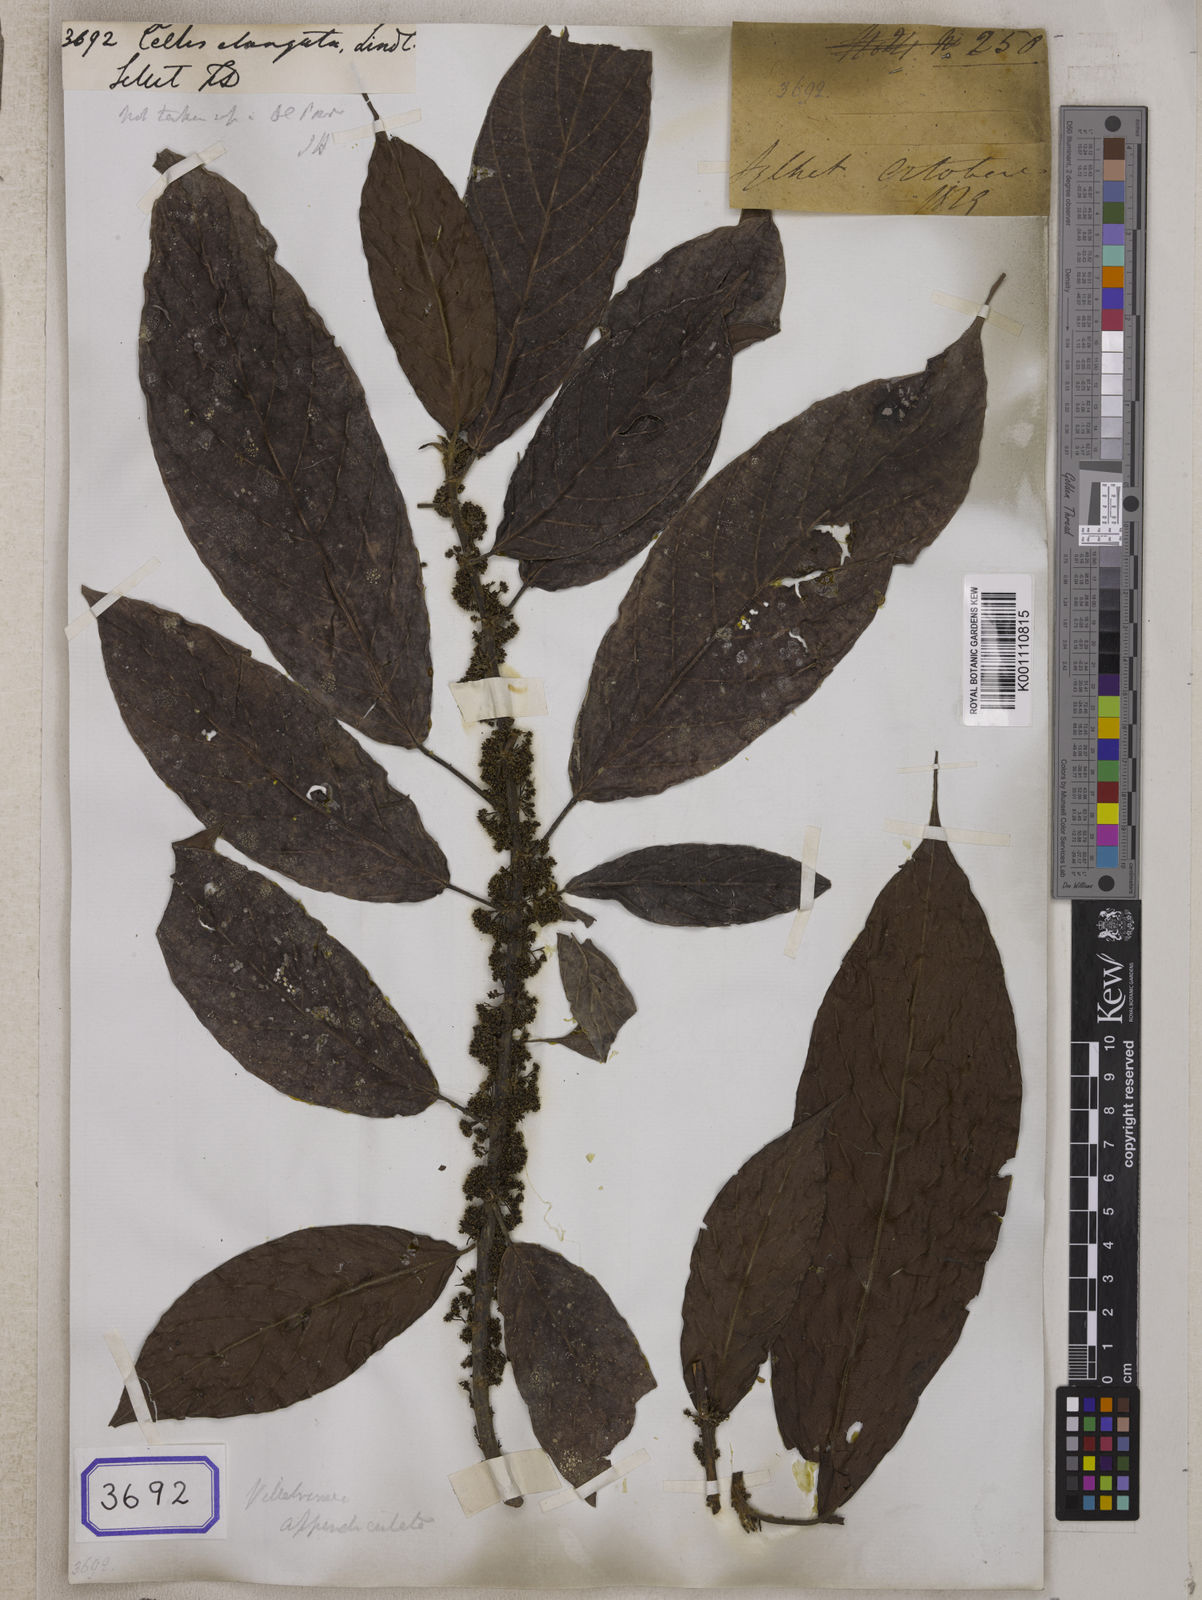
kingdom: Plantae
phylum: Tracheophyta
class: Magnoliopsida
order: Rosales
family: Urticaceae
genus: Oreocnide
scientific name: Oreocnide integrifolia
